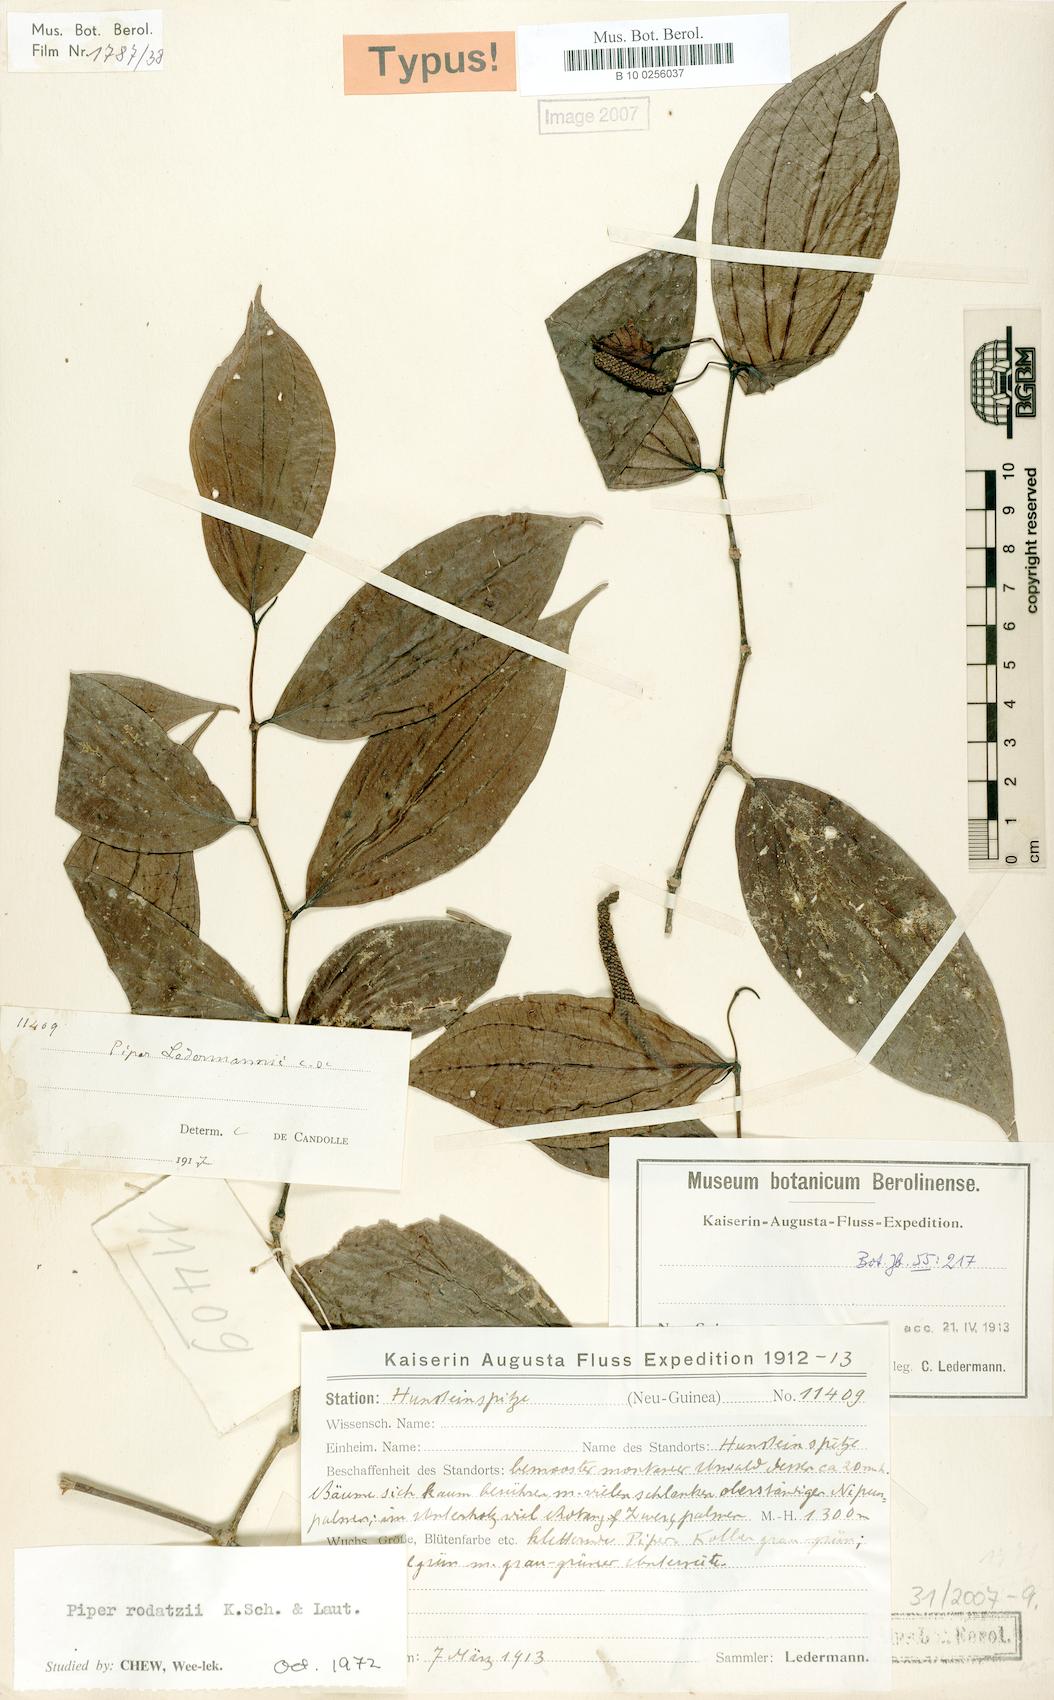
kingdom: Plantae
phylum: Tracheophyta
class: Magnoliopsida
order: Piperales
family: Piperaceae
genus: Piper
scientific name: Piper macropiper
